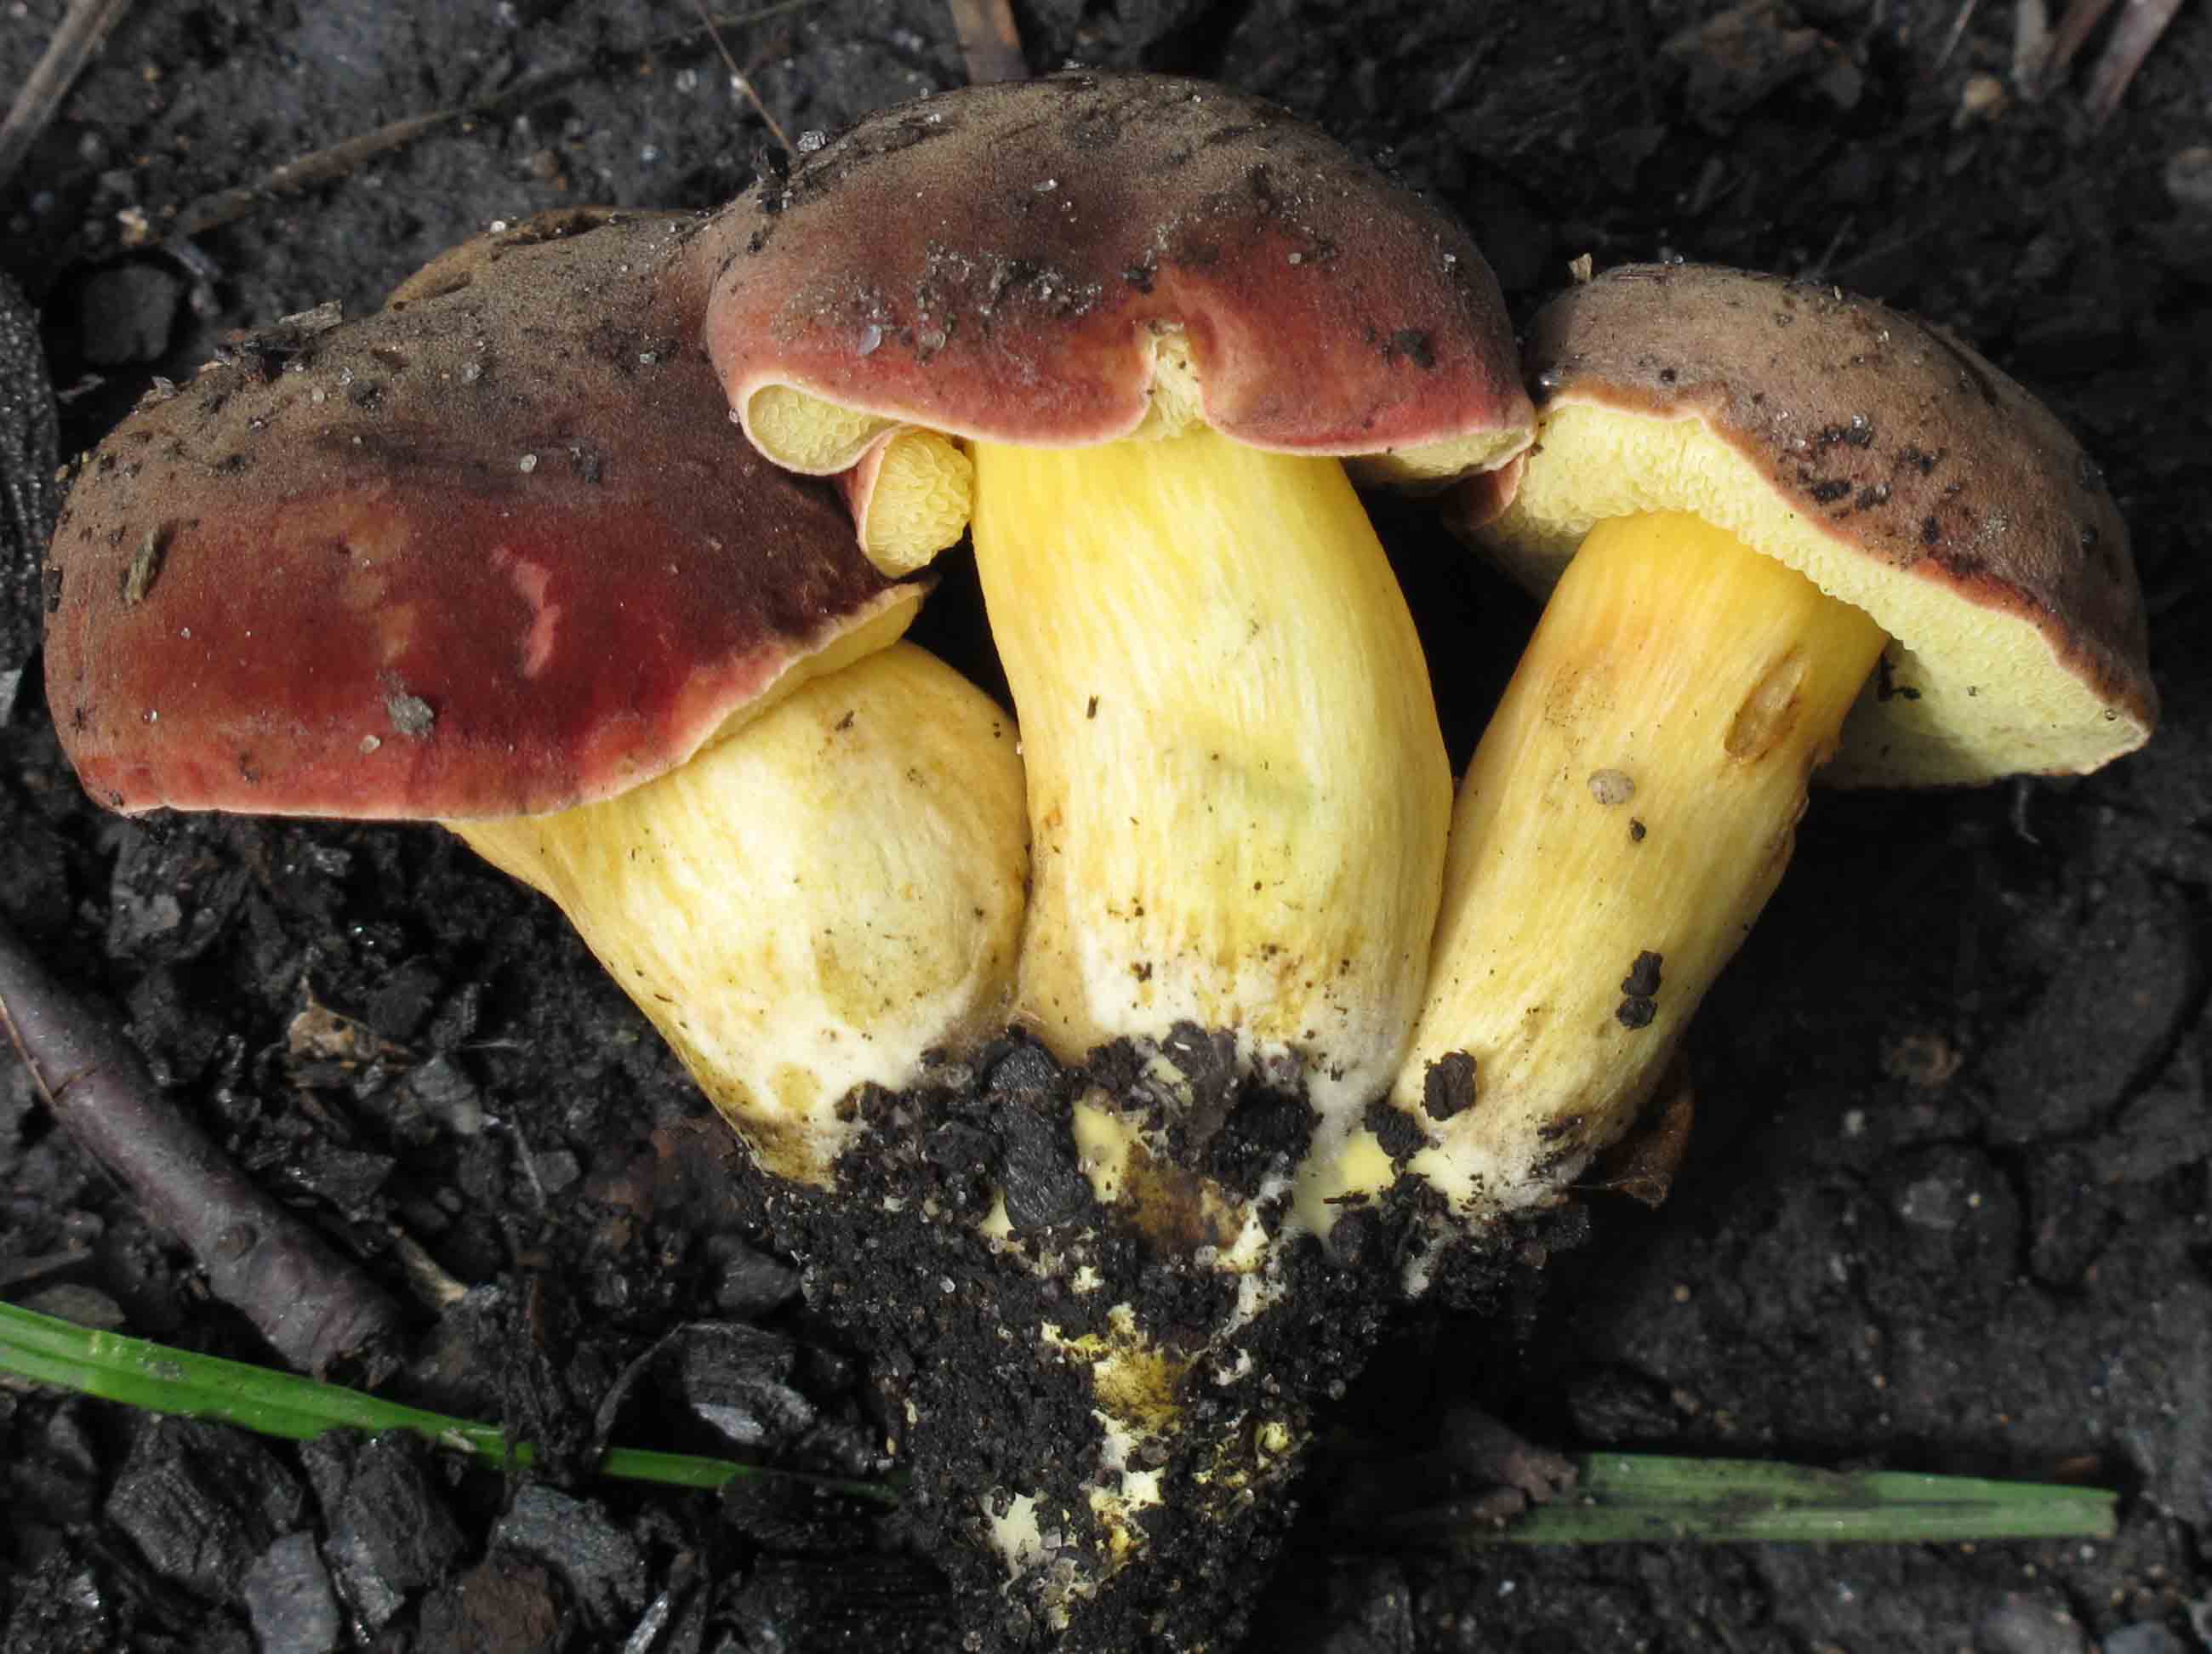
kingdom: Fungi
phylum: Basidiomycota
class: Agaricomycetes
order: Boletales
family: Boletaceae
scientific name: Boletaceae
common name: rørhatfamilien
